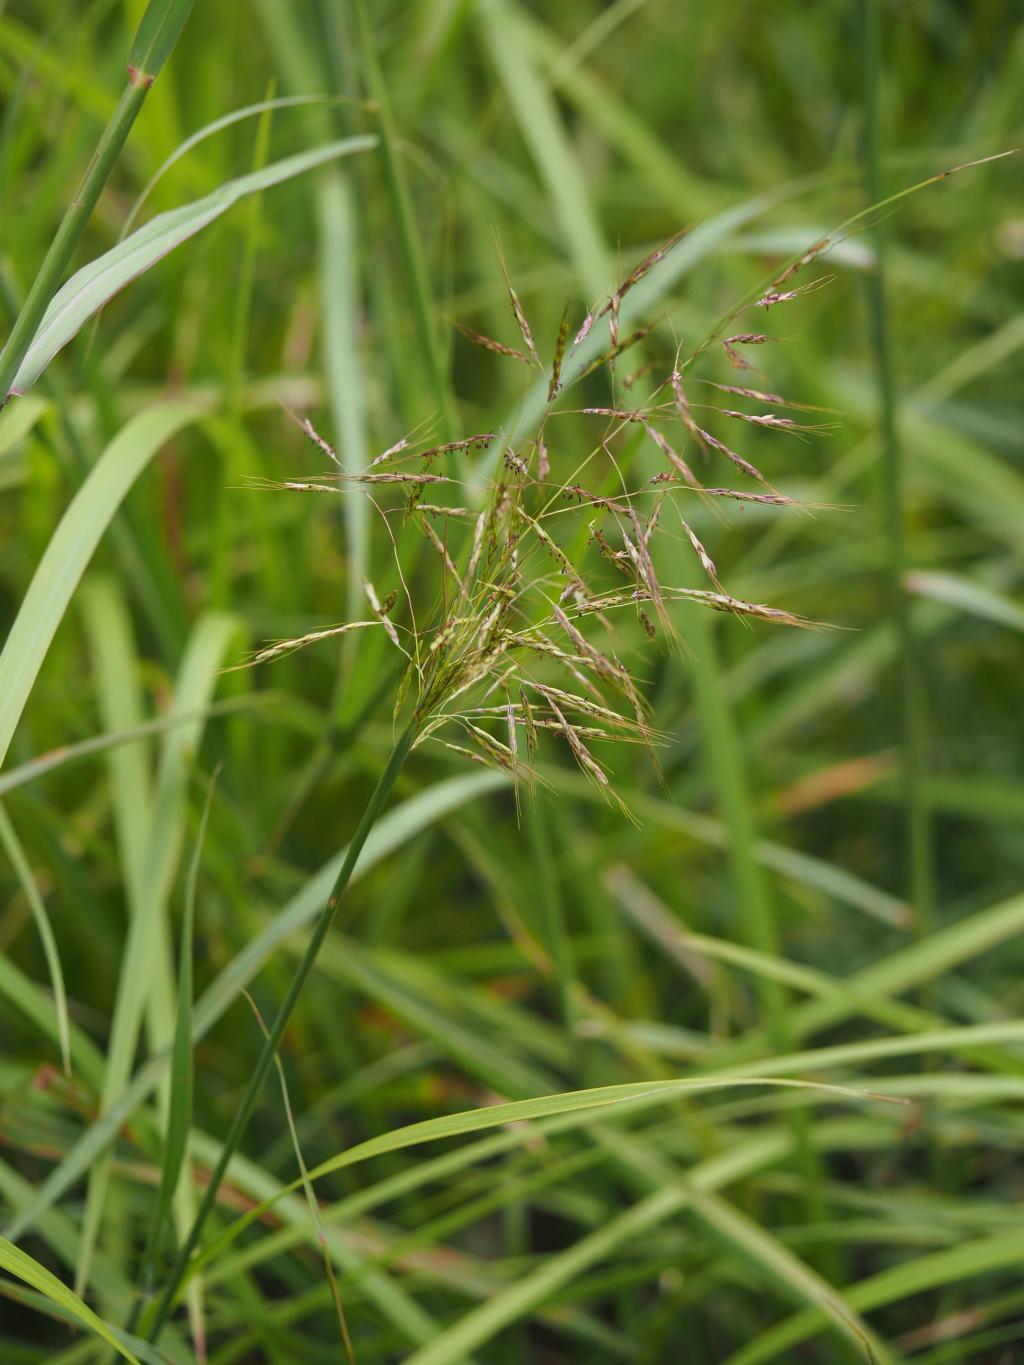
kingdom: Plantae
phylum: Tracheophyta
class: Liliopsida
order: Poales
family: Poaceae
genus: Capillipedium
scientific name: Capillipedium parviflorum
